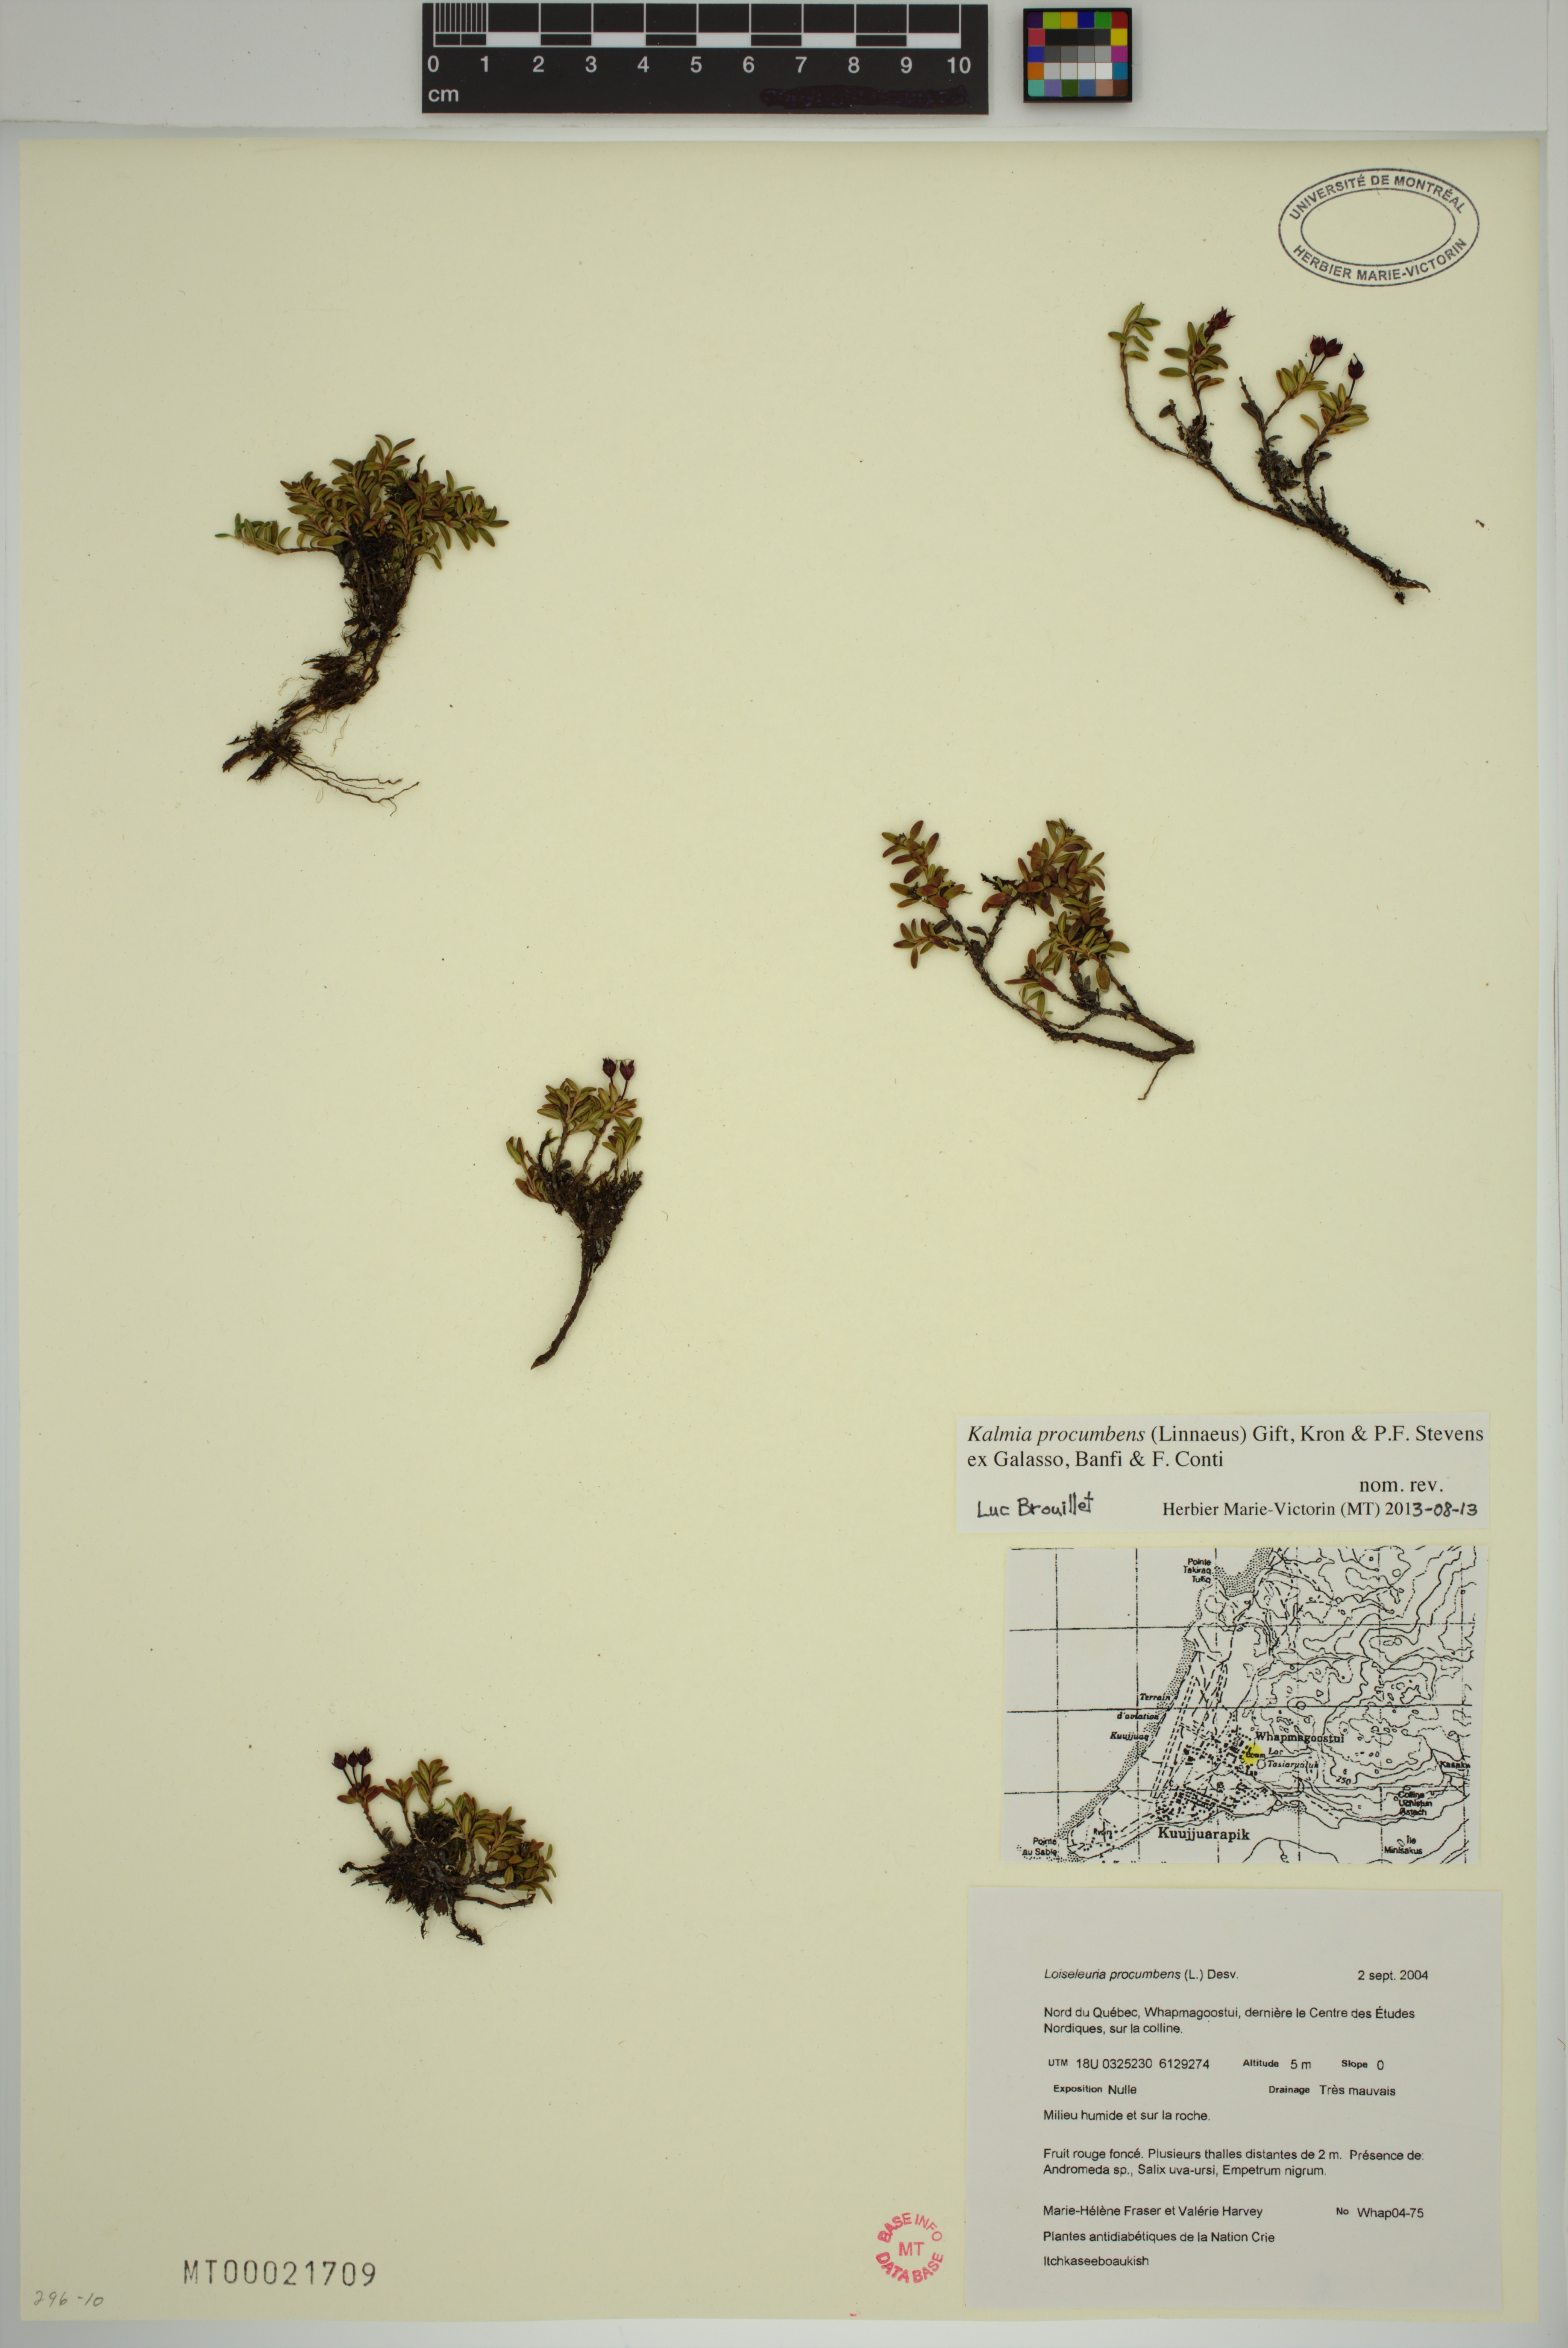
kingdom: Plantae
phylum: Tracheophyta
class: Magnoliopsida
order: Ericales
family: Ericaceae
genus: Kalmia
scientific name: Kalmia procumbens
